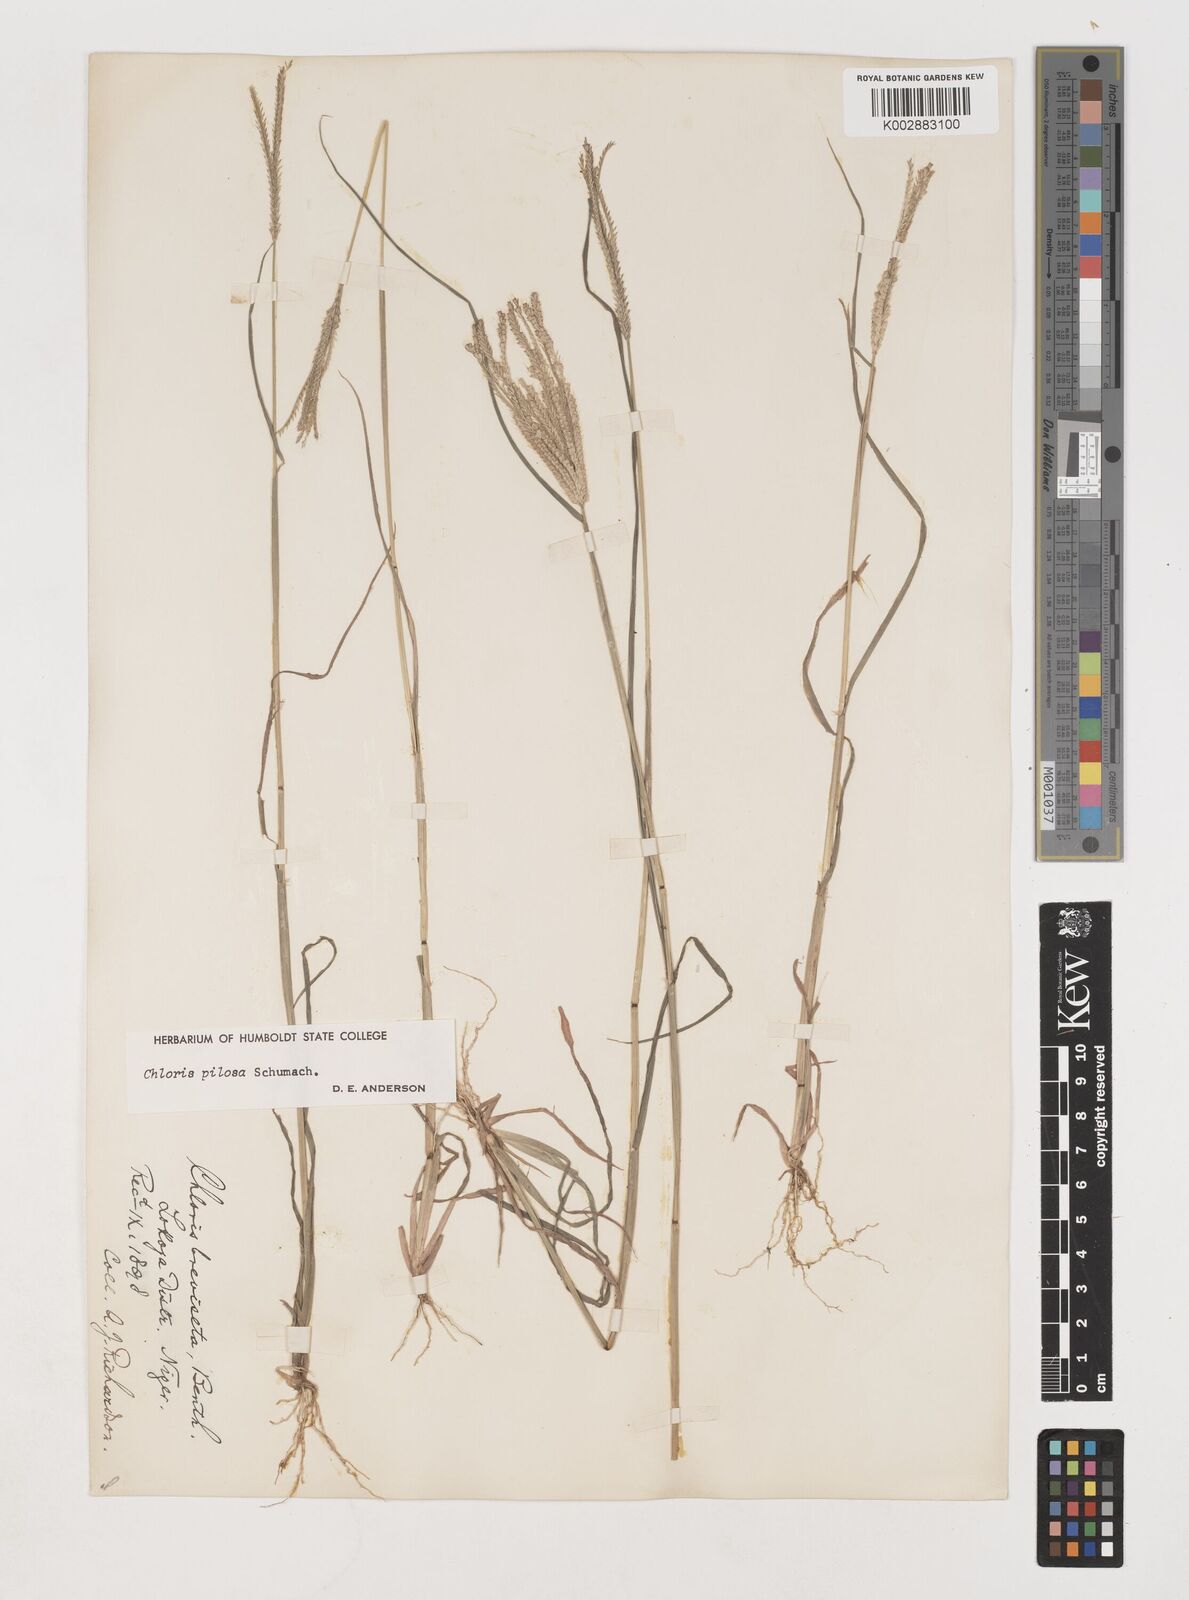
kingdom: Plantae
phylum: Tracheophyta
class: Liliopsida
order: Poales
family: Poaceae
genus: Chloris
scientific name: Chloris pilosa
